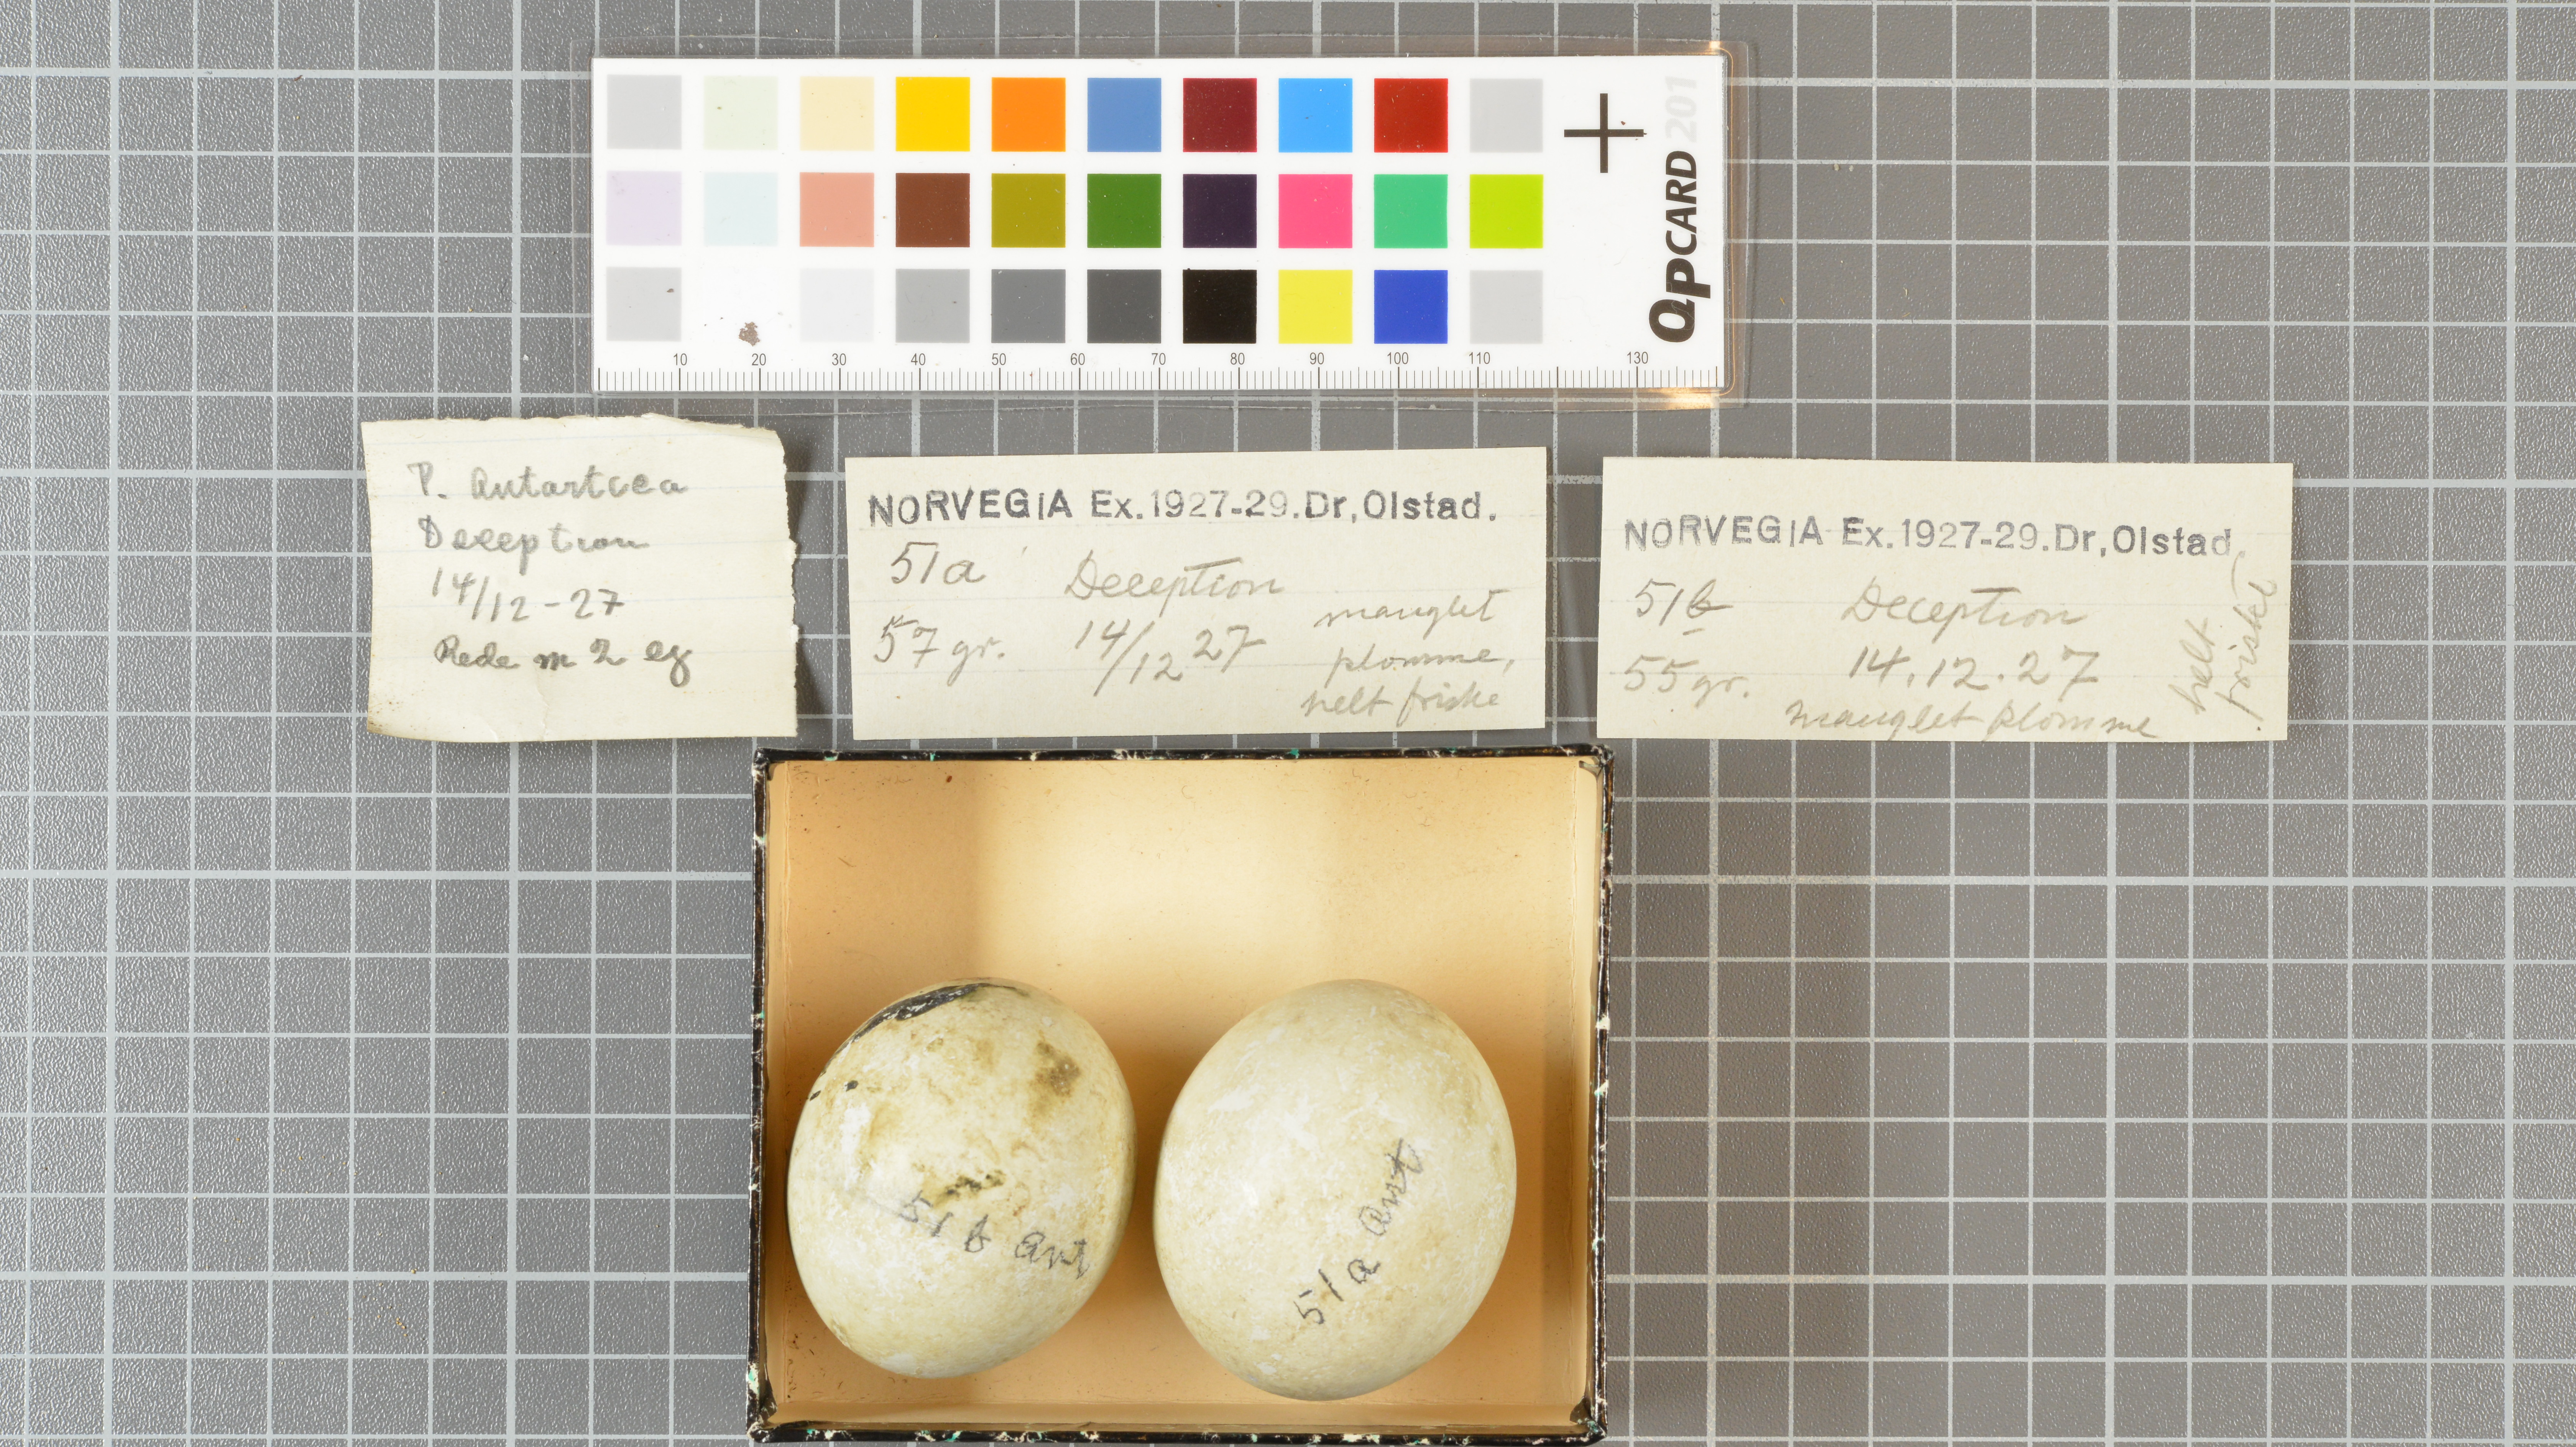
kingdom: Animalia
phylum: Chordata
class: Aves
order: Sphenisciformes
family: Spheniscidae
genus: Pygoscelis
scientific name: Pygoscelis antarcticus
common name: Chinstrap penguin
